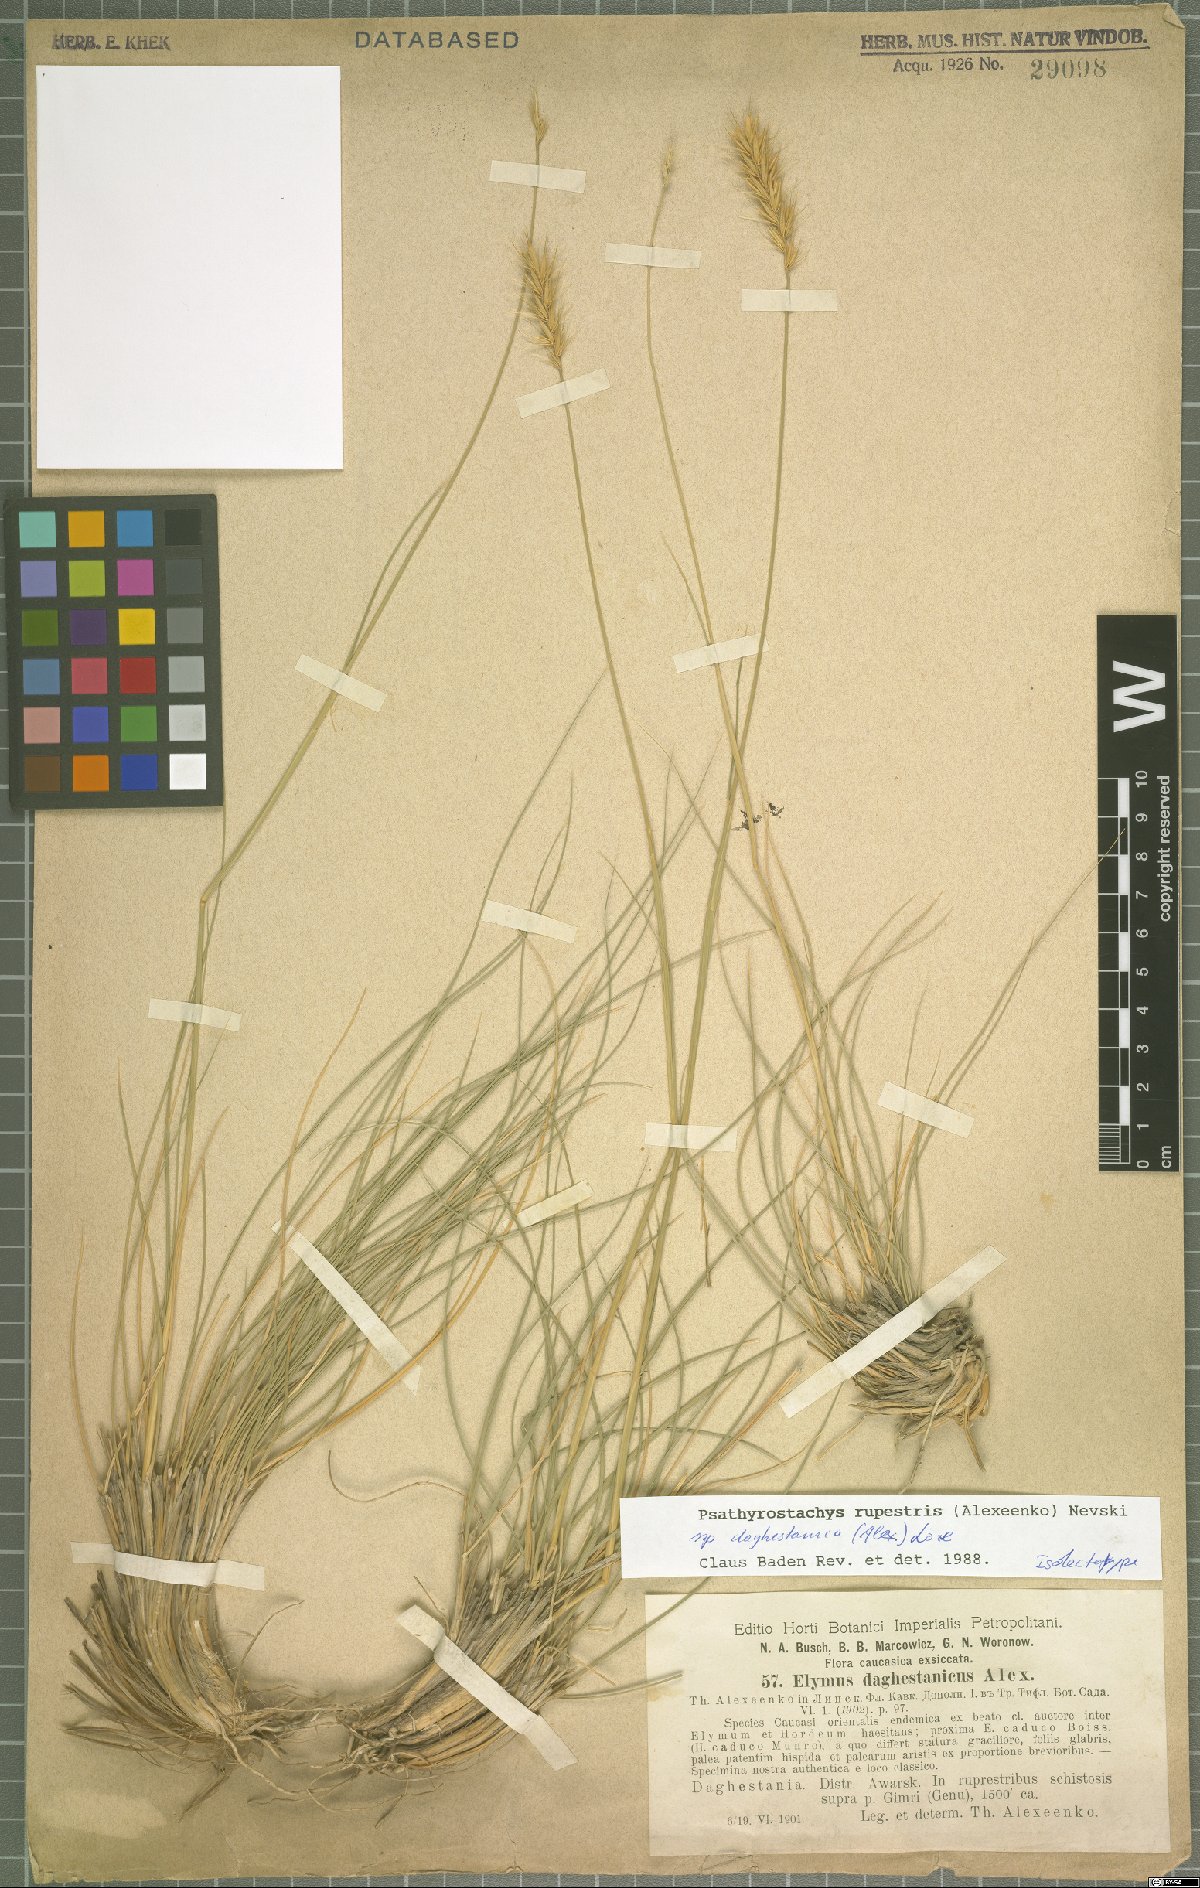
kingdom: Plantae
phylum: Tracheophyta
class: Liliopsida
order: Poales
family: Poaceae
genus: Psathyrostachys
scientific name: Psathyrostachys daghestanica
